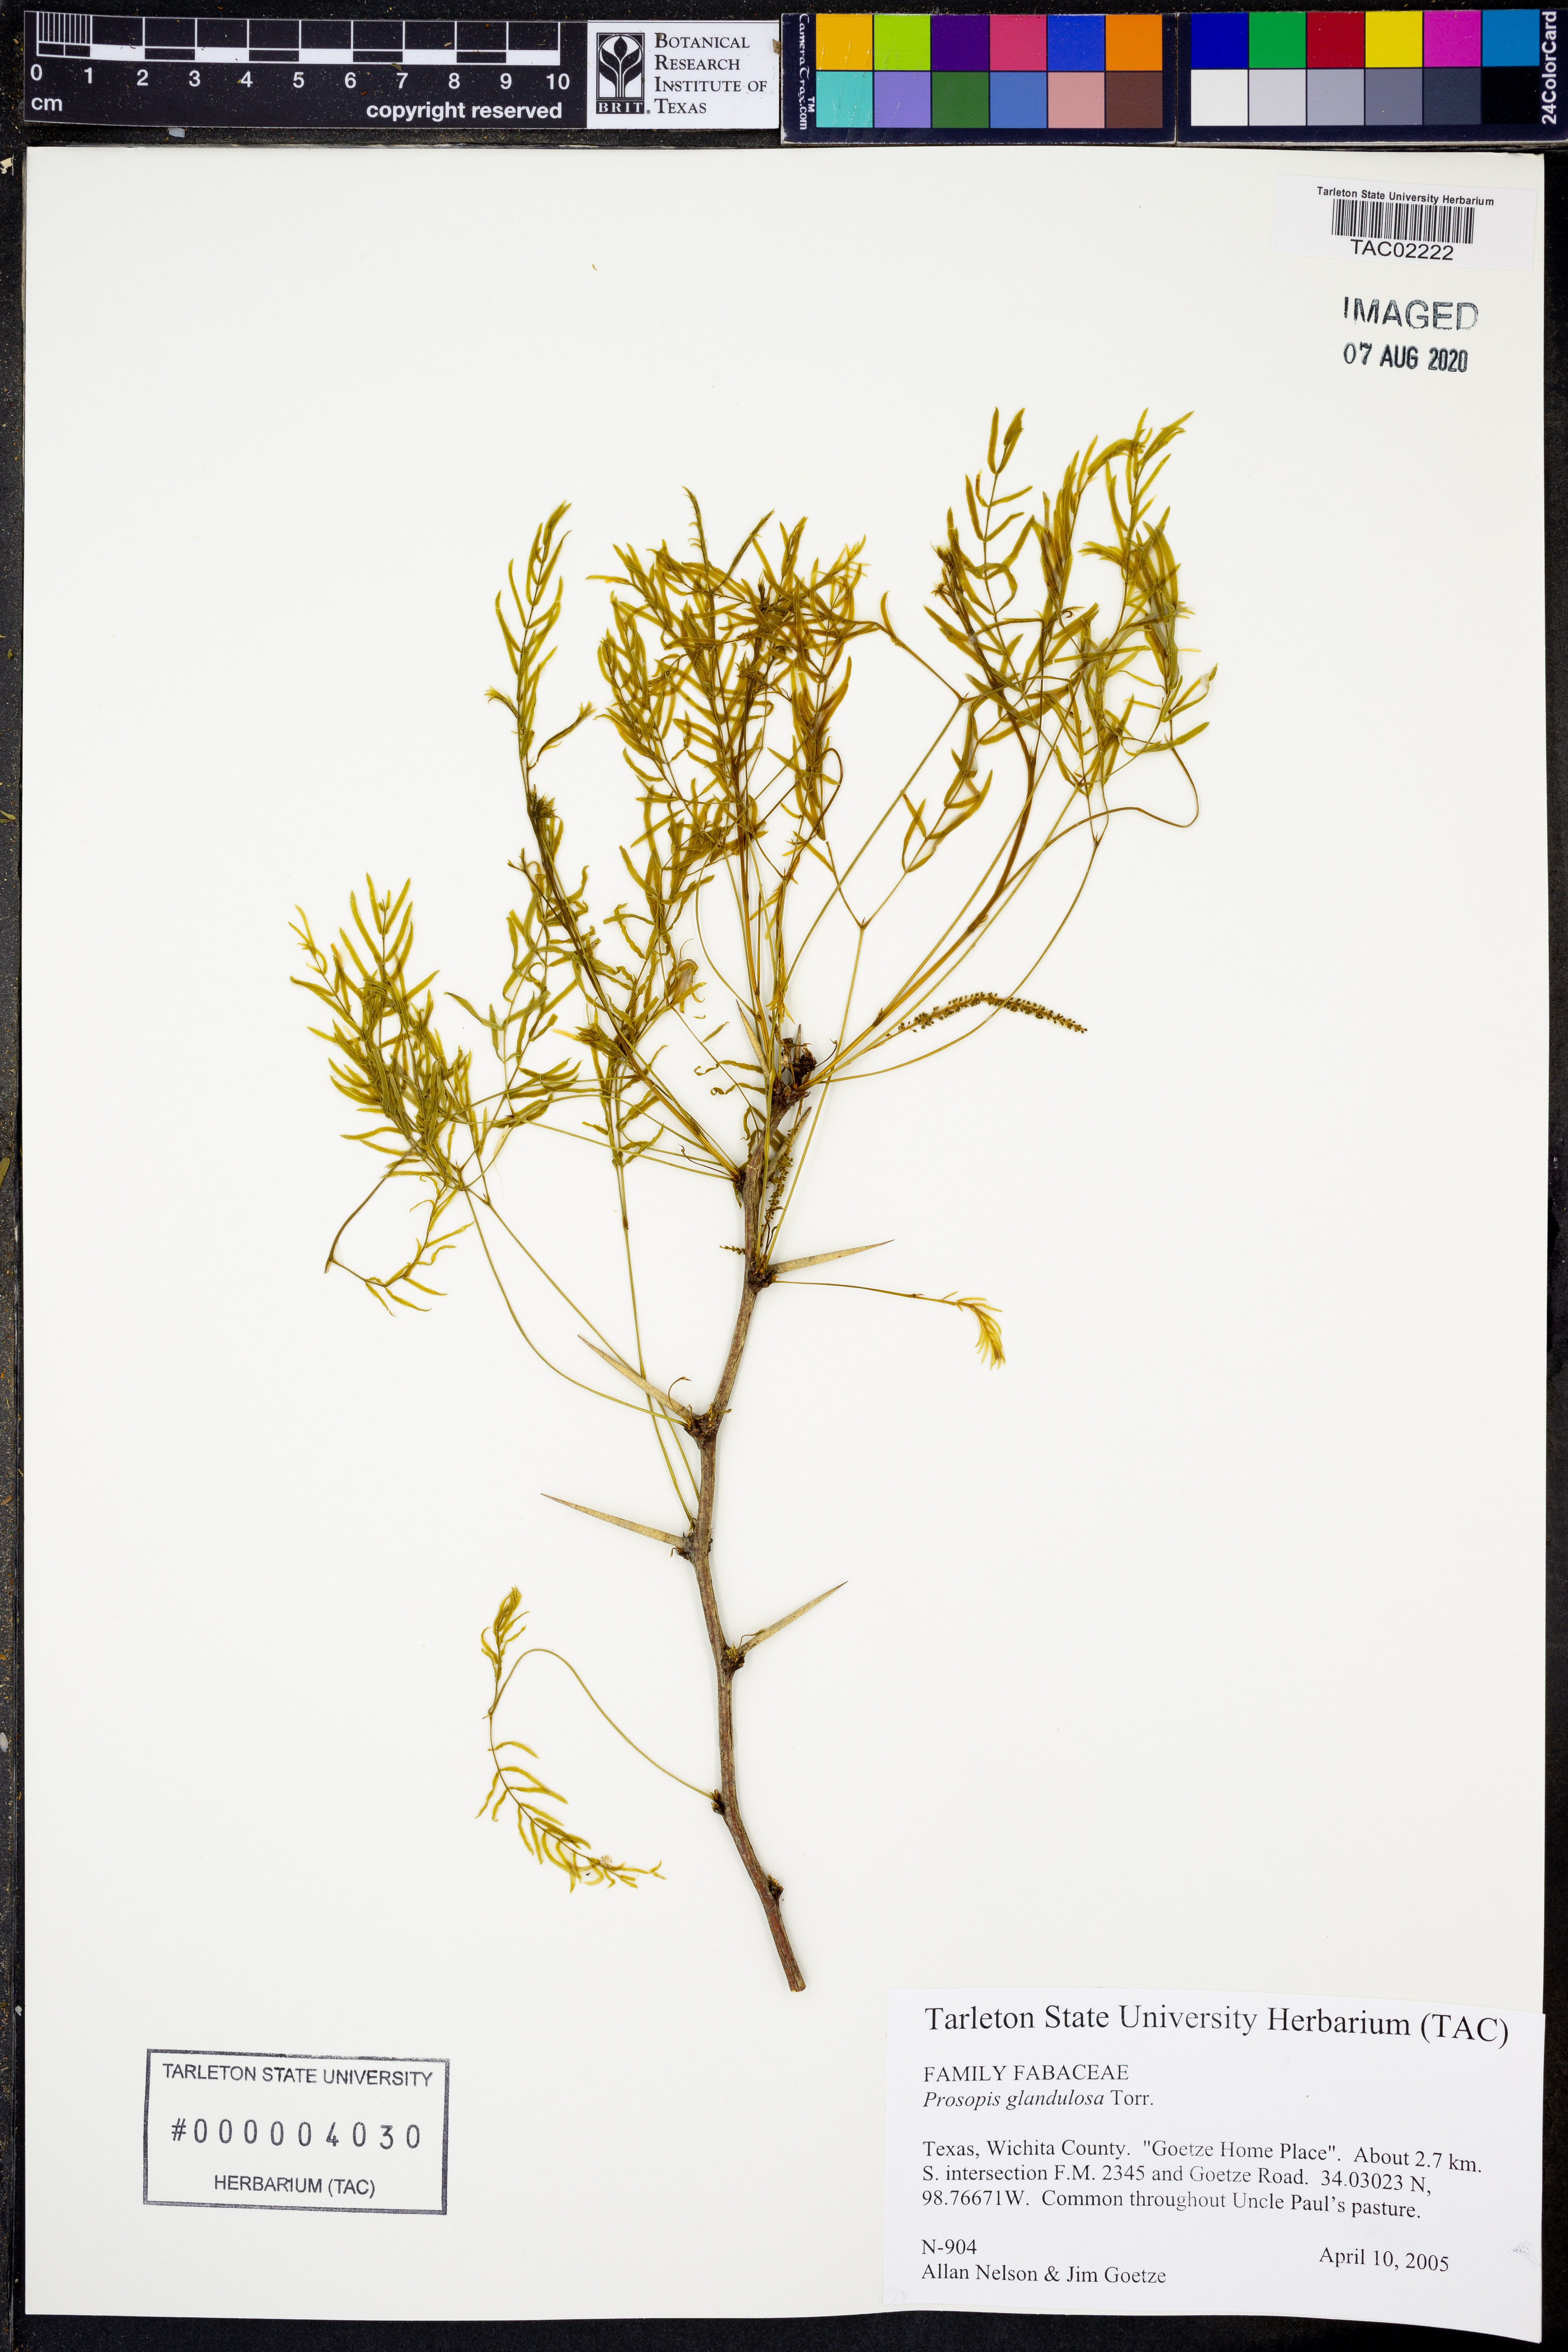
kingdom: Plantae
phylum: Tracheophyta
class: Magnoliopsida
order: Fabales
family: Fabaceae
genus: Prosopis
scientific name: Prosopis glandulosa
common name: Honey mesquite
